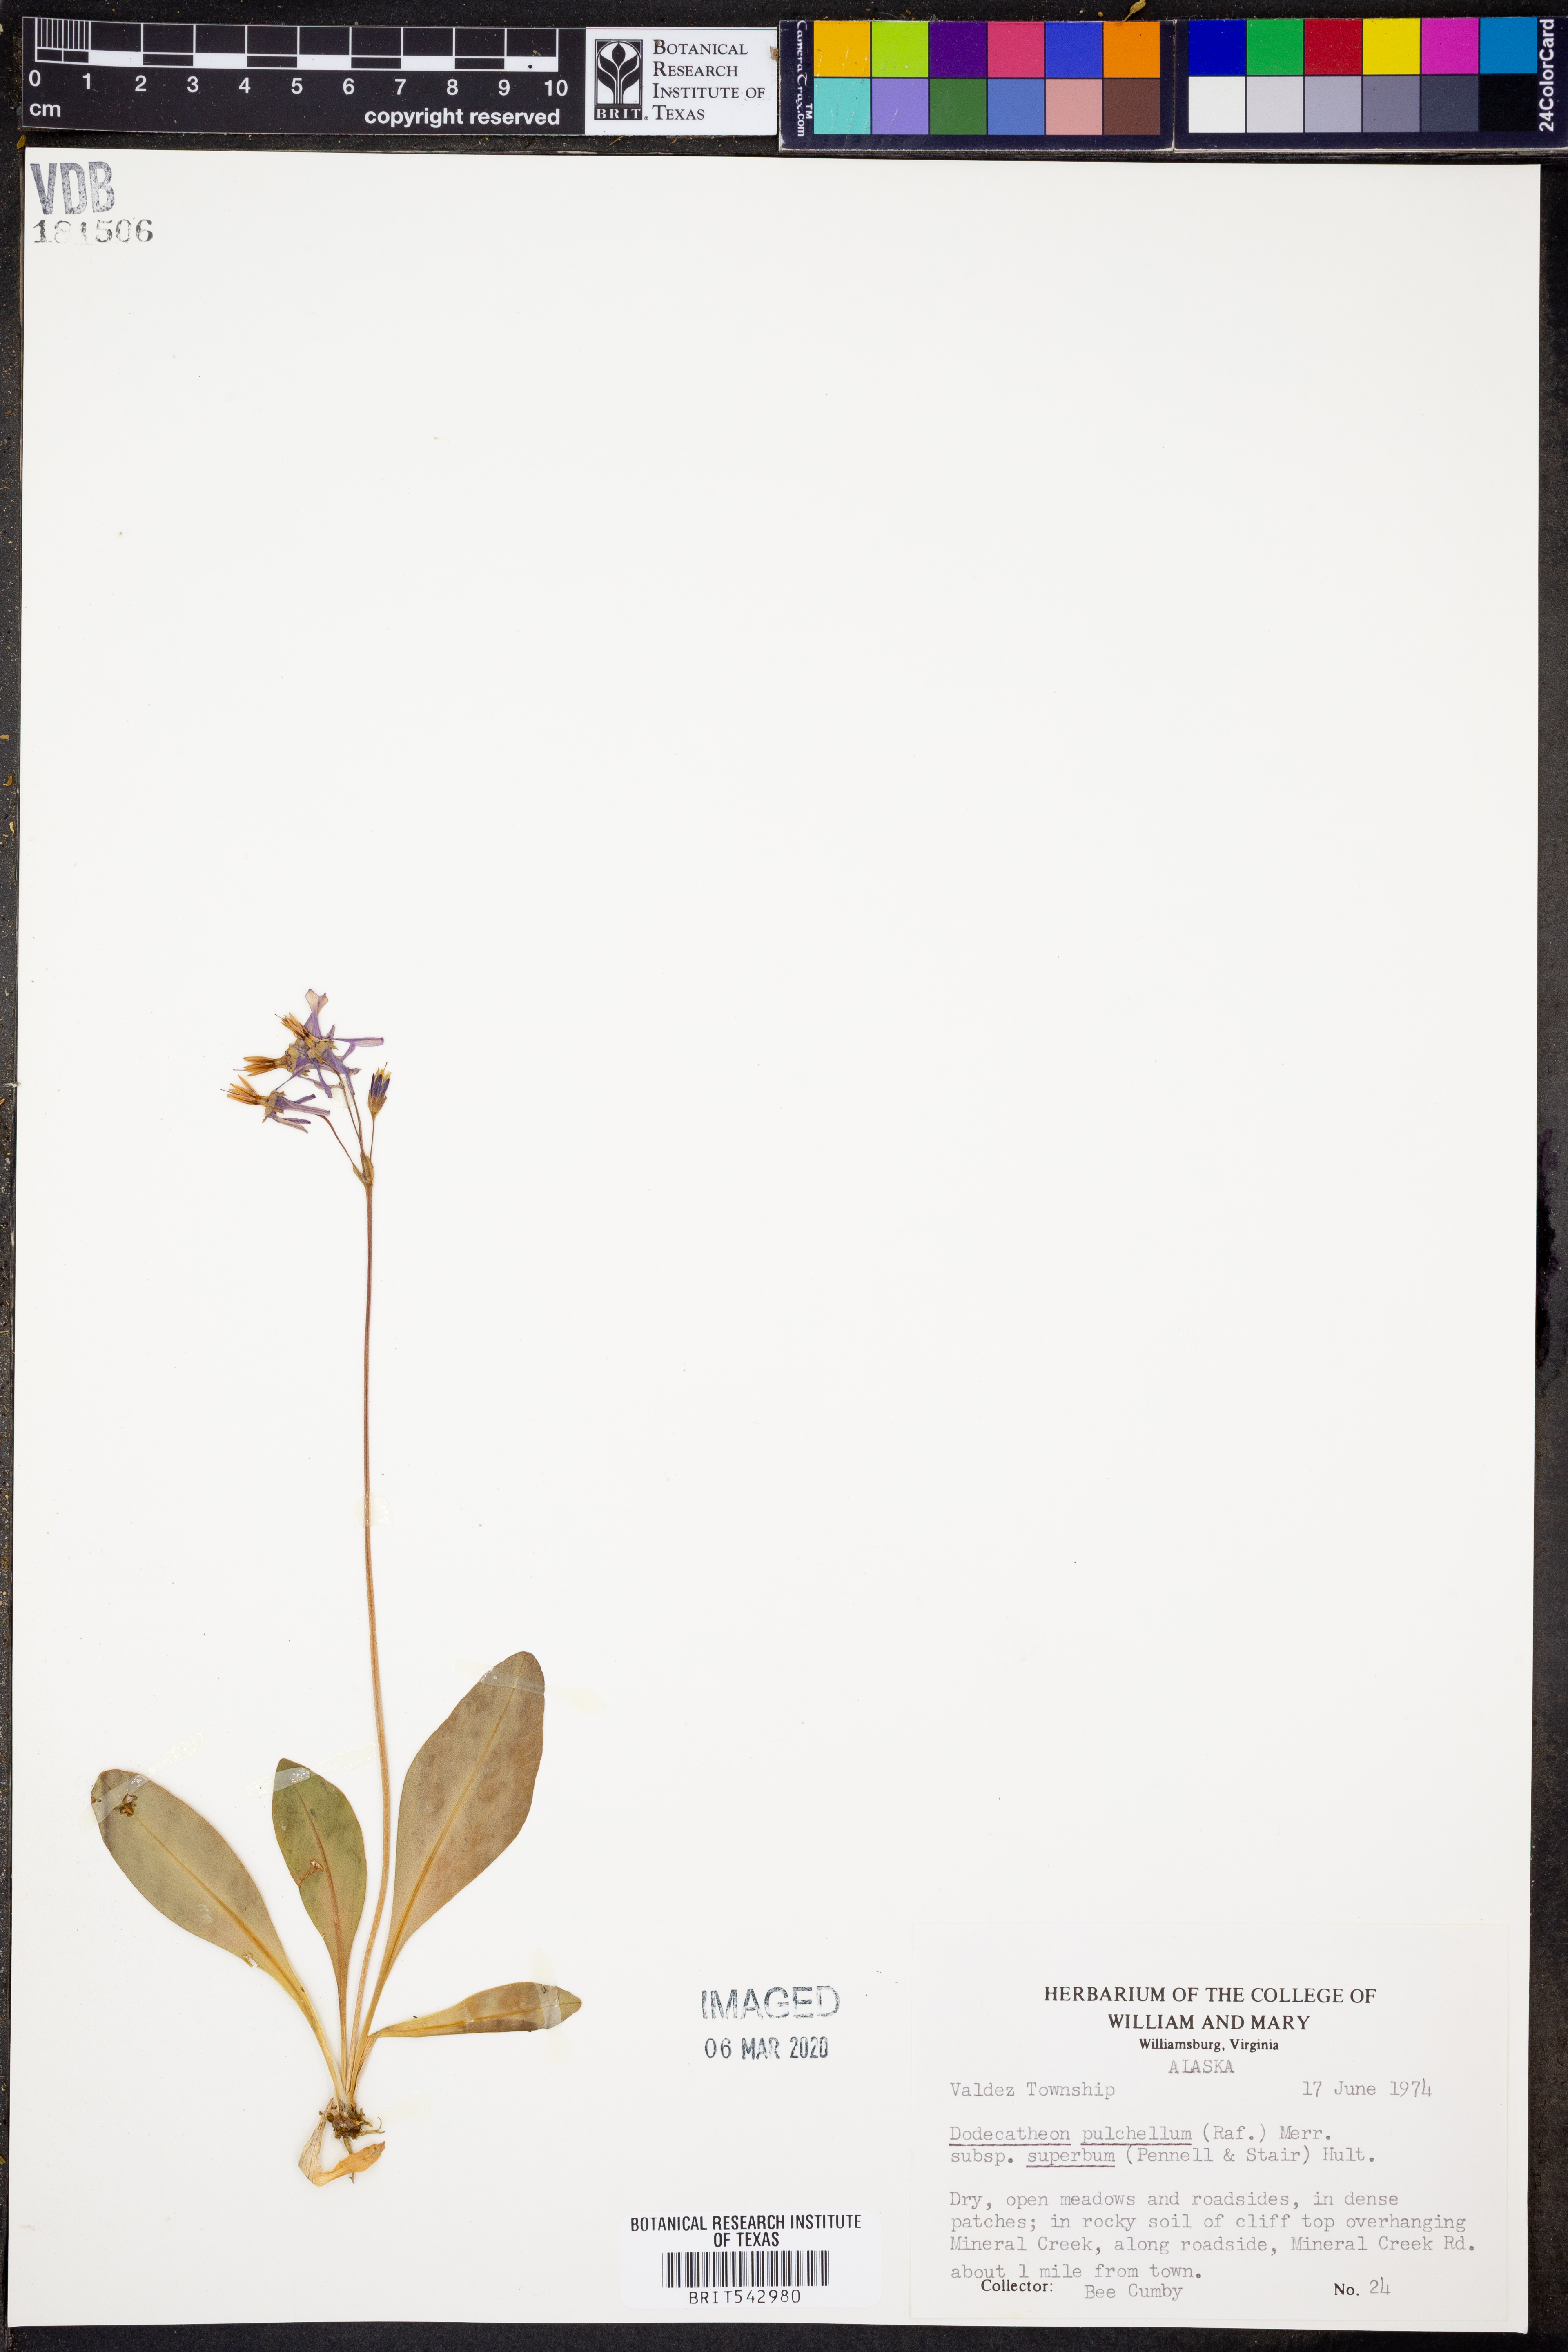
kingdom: Plantae
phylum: Tracheophyta
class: Magnoliopsida
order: Ericales
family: Primulaceae
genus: Dodecatheon
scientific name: Dodecatheon pulchellum
